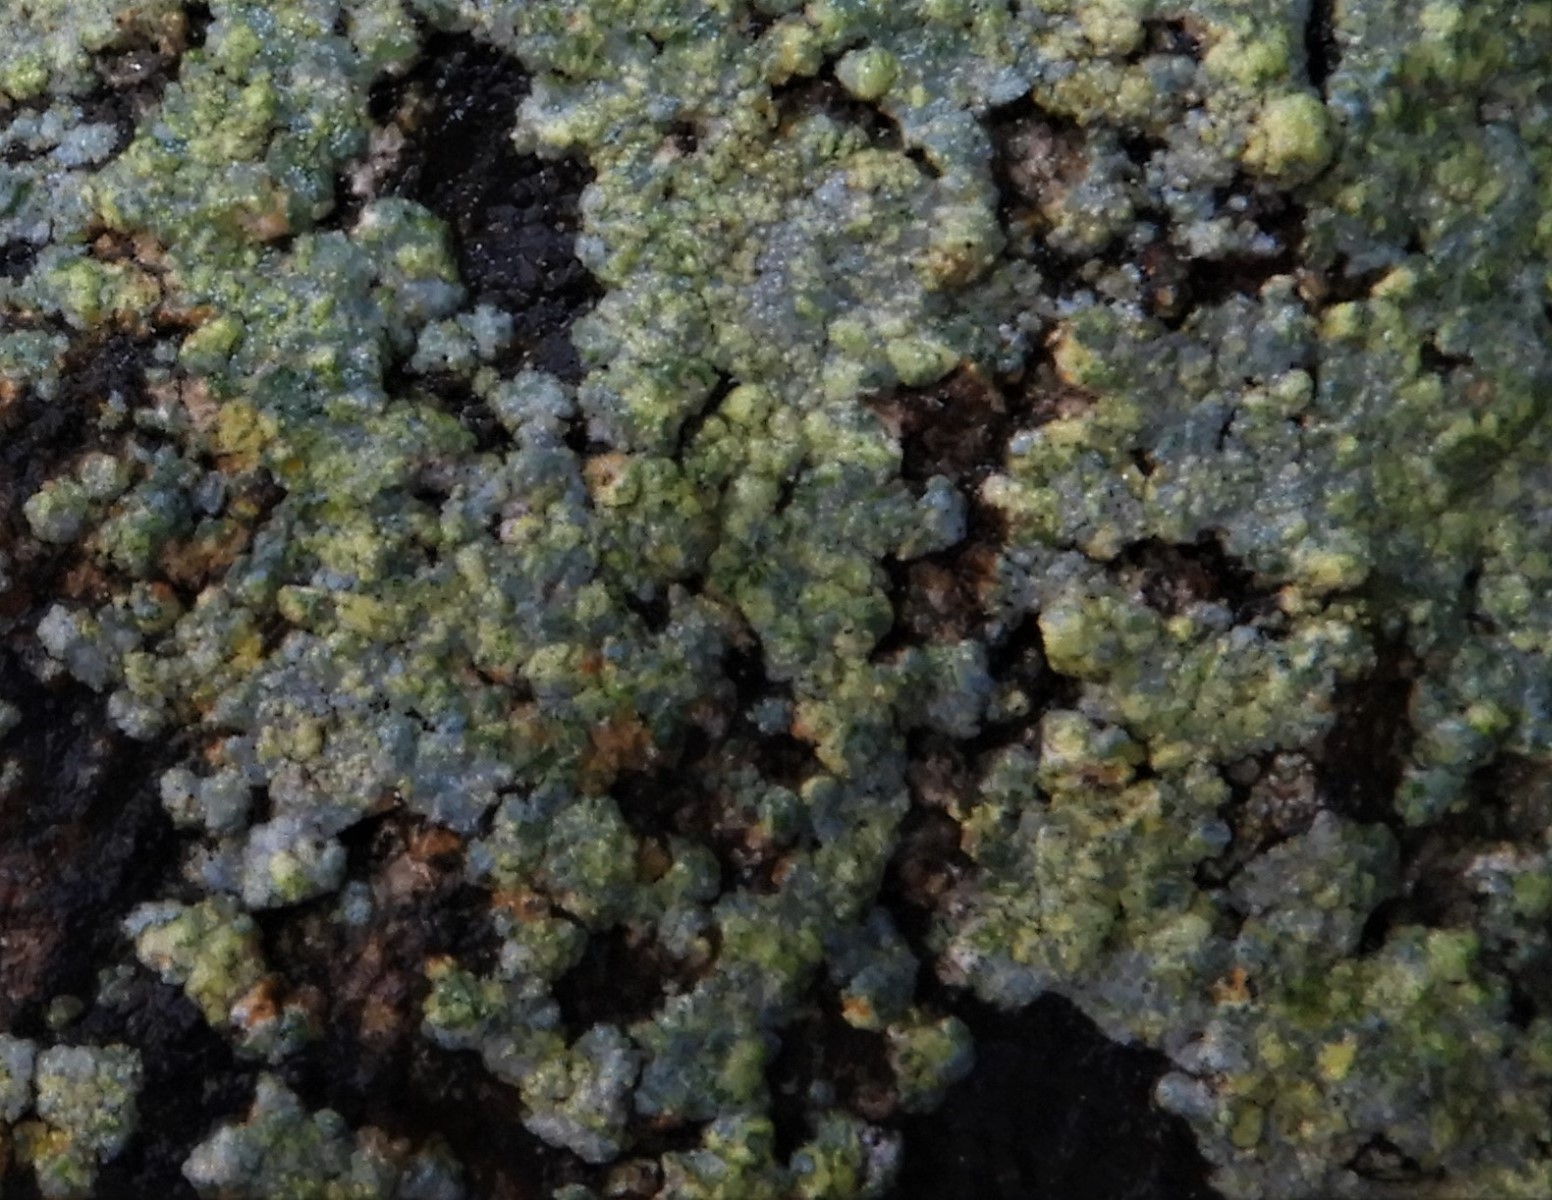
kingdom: Fungi
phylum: Ascomycota
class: Lecanoromycetes
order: Baeomycetales
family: Trapeliaceae
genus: Kleopowiella
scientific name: Kleopowiella placodioides
